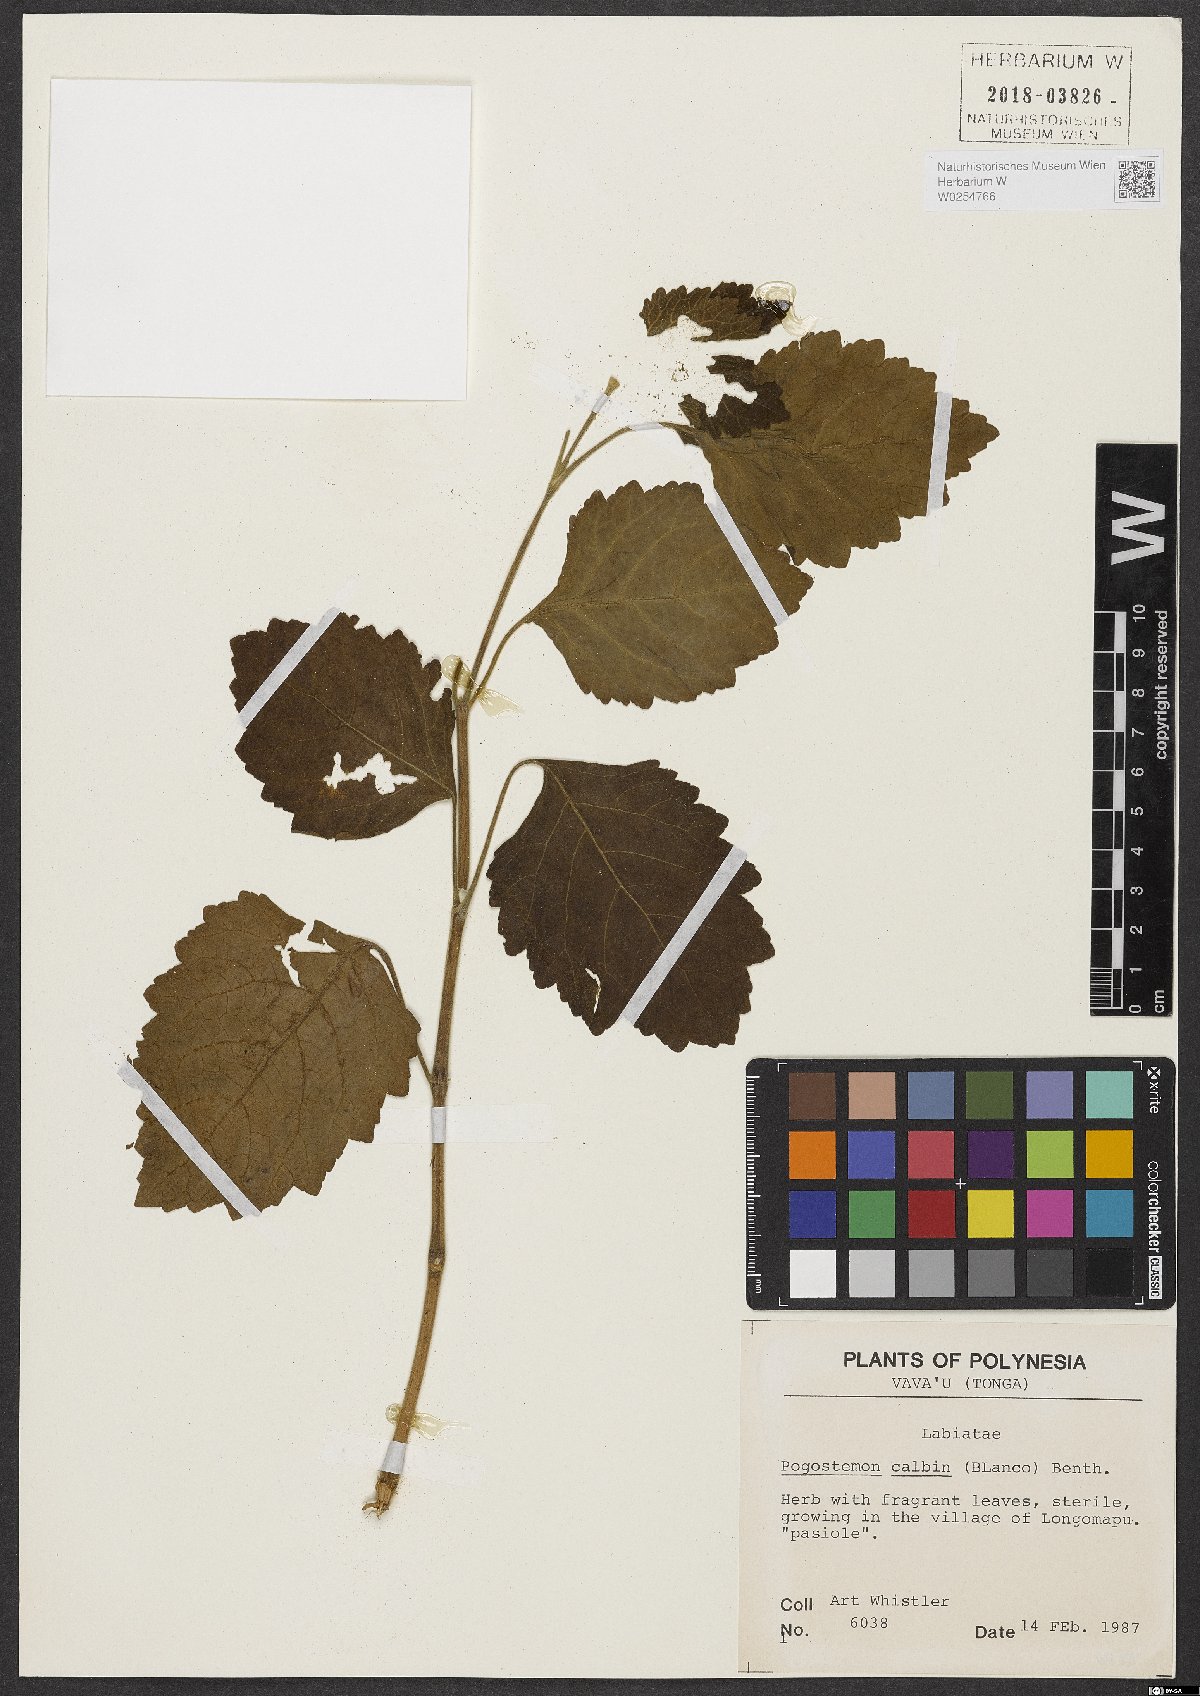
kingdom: Plantae
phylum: Tracheophyta
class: Magnoliopsida
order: Lamiales
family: Lamiaceae
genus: Pogostemon
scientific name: Pogostemon cablin
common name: Patchouli-plant
